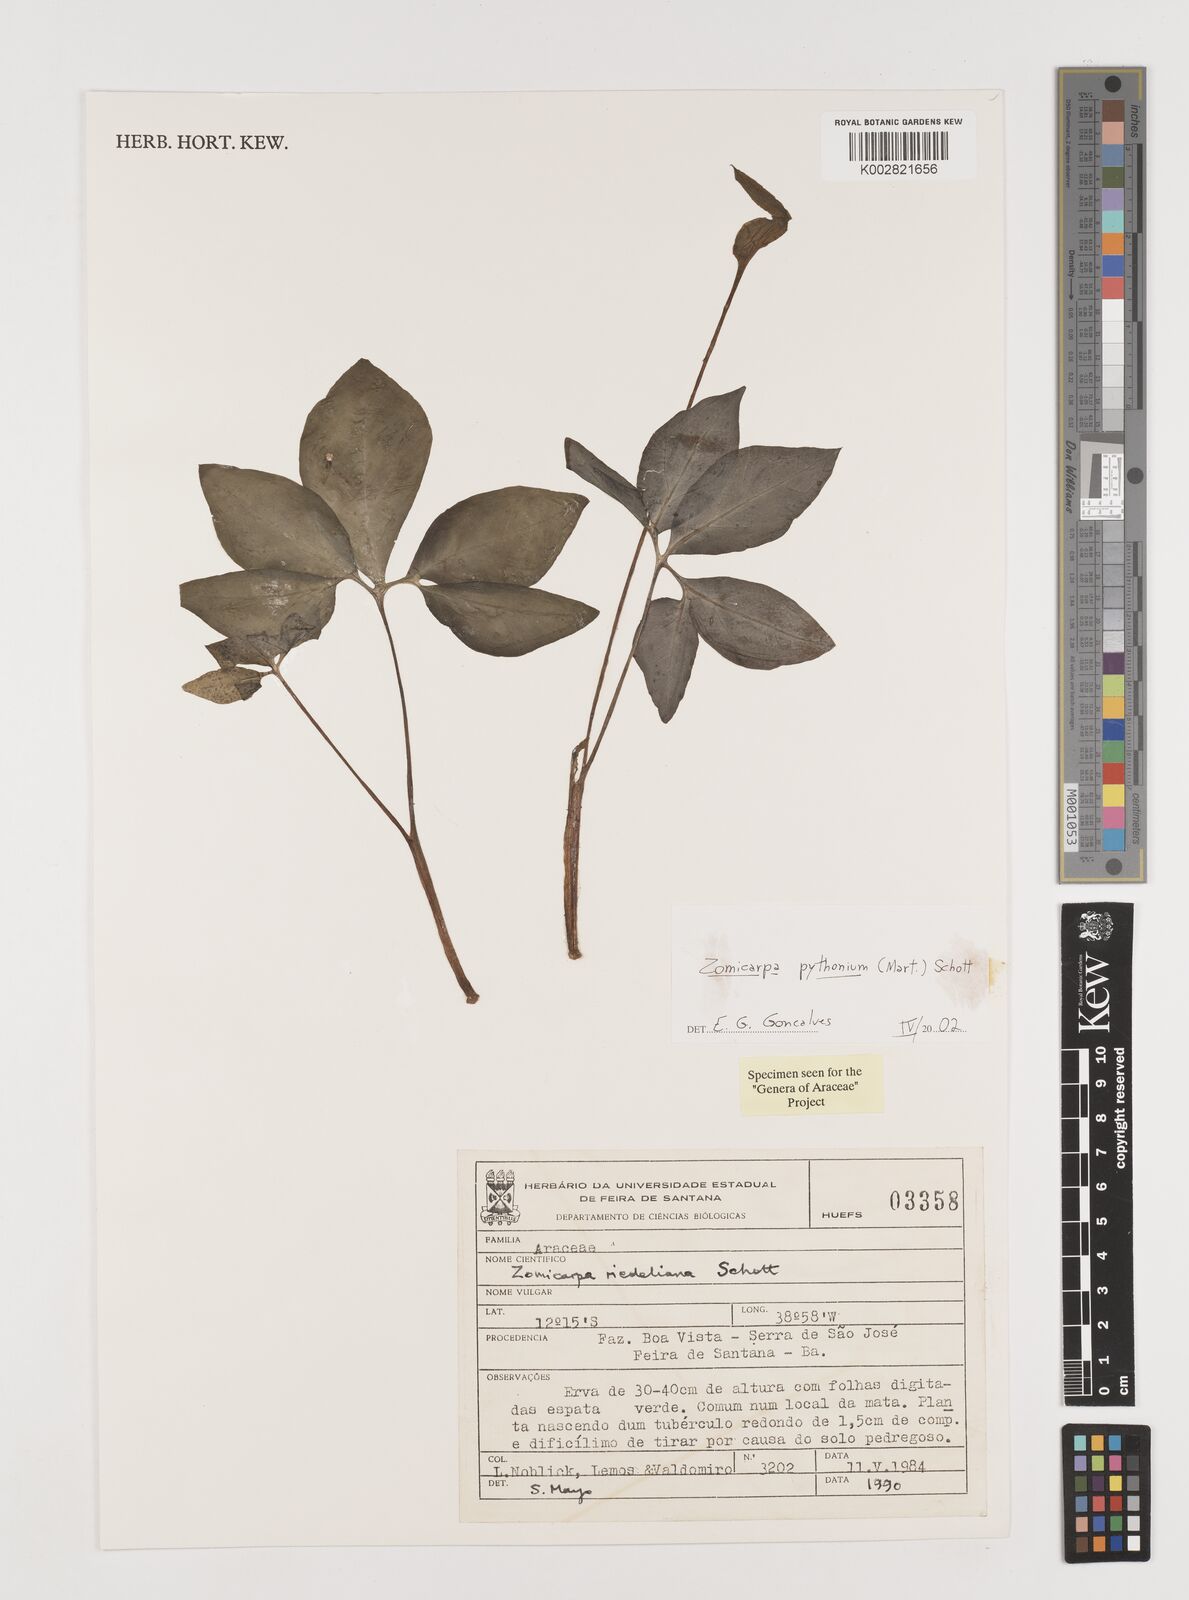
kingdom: Plantae
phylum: Tracheophyta
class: Liliopsida
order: Alismatales
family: Araceae
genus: Zomicarpa
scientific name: Zomicarpa pythonium
